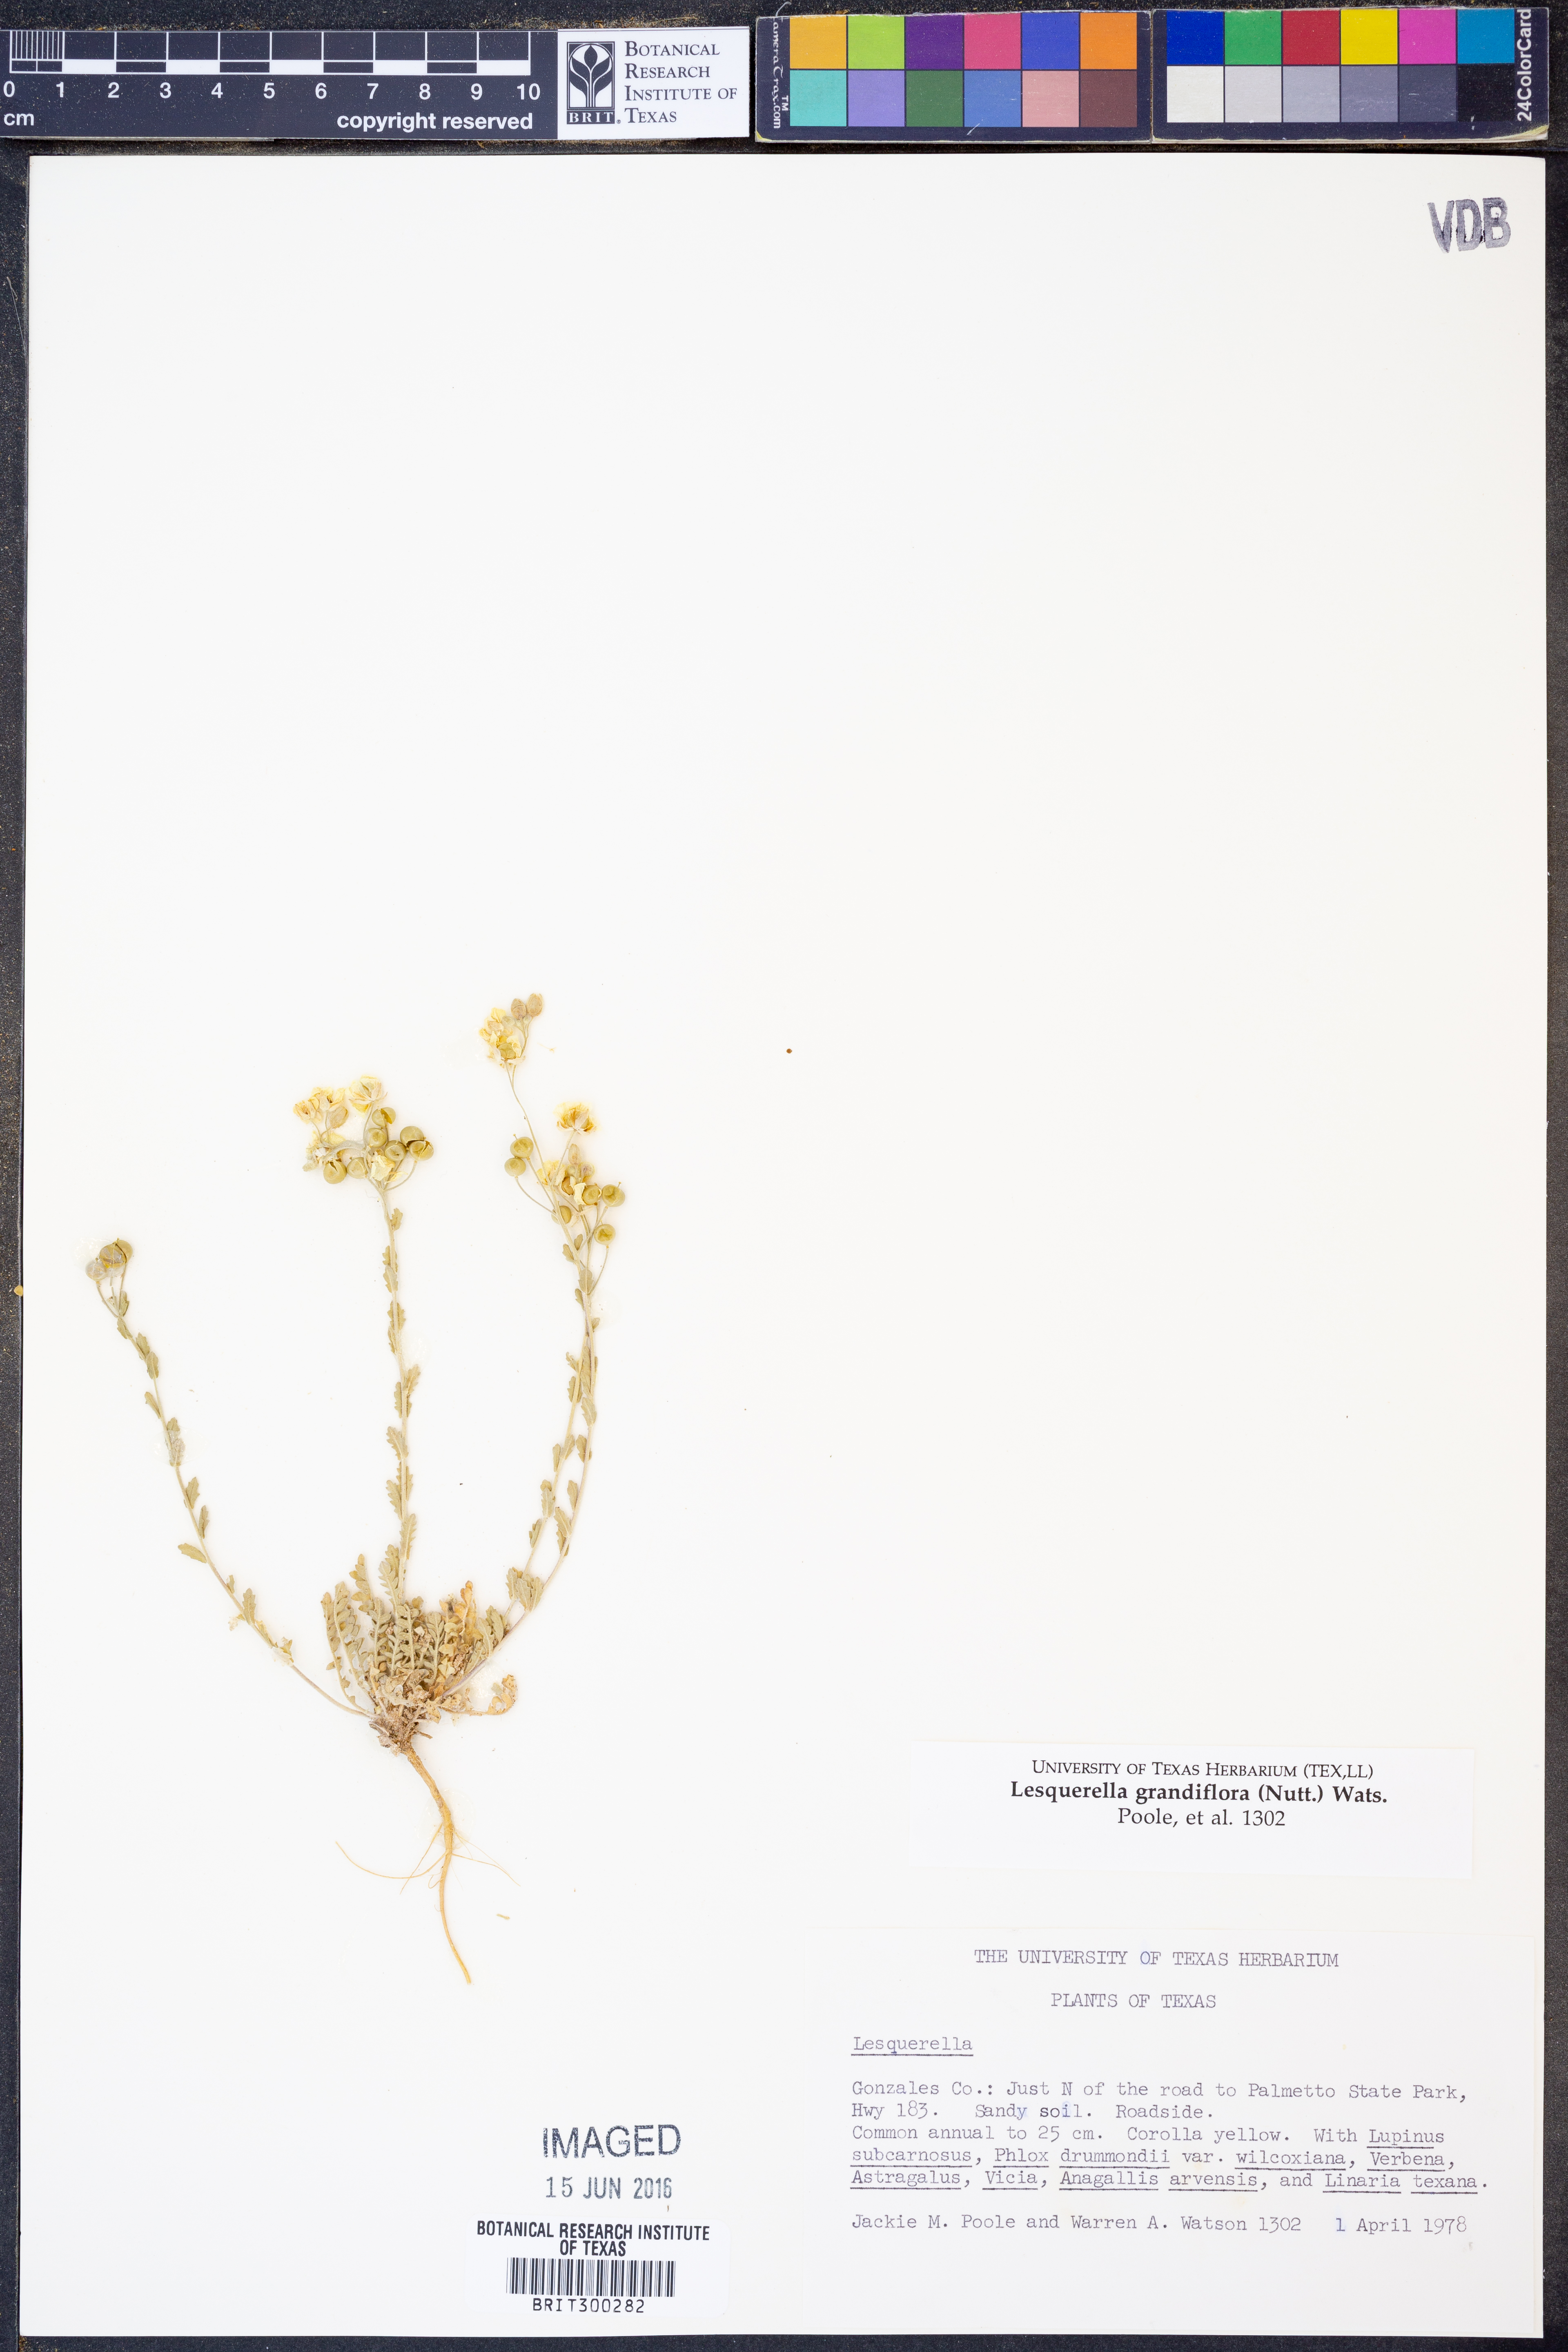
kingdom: Plantae
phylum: Tracheophyta
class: Magnoliopsida
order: Brassicales
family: Brassicaceae
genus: Paysonia
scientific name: Paysonia grandiflora
